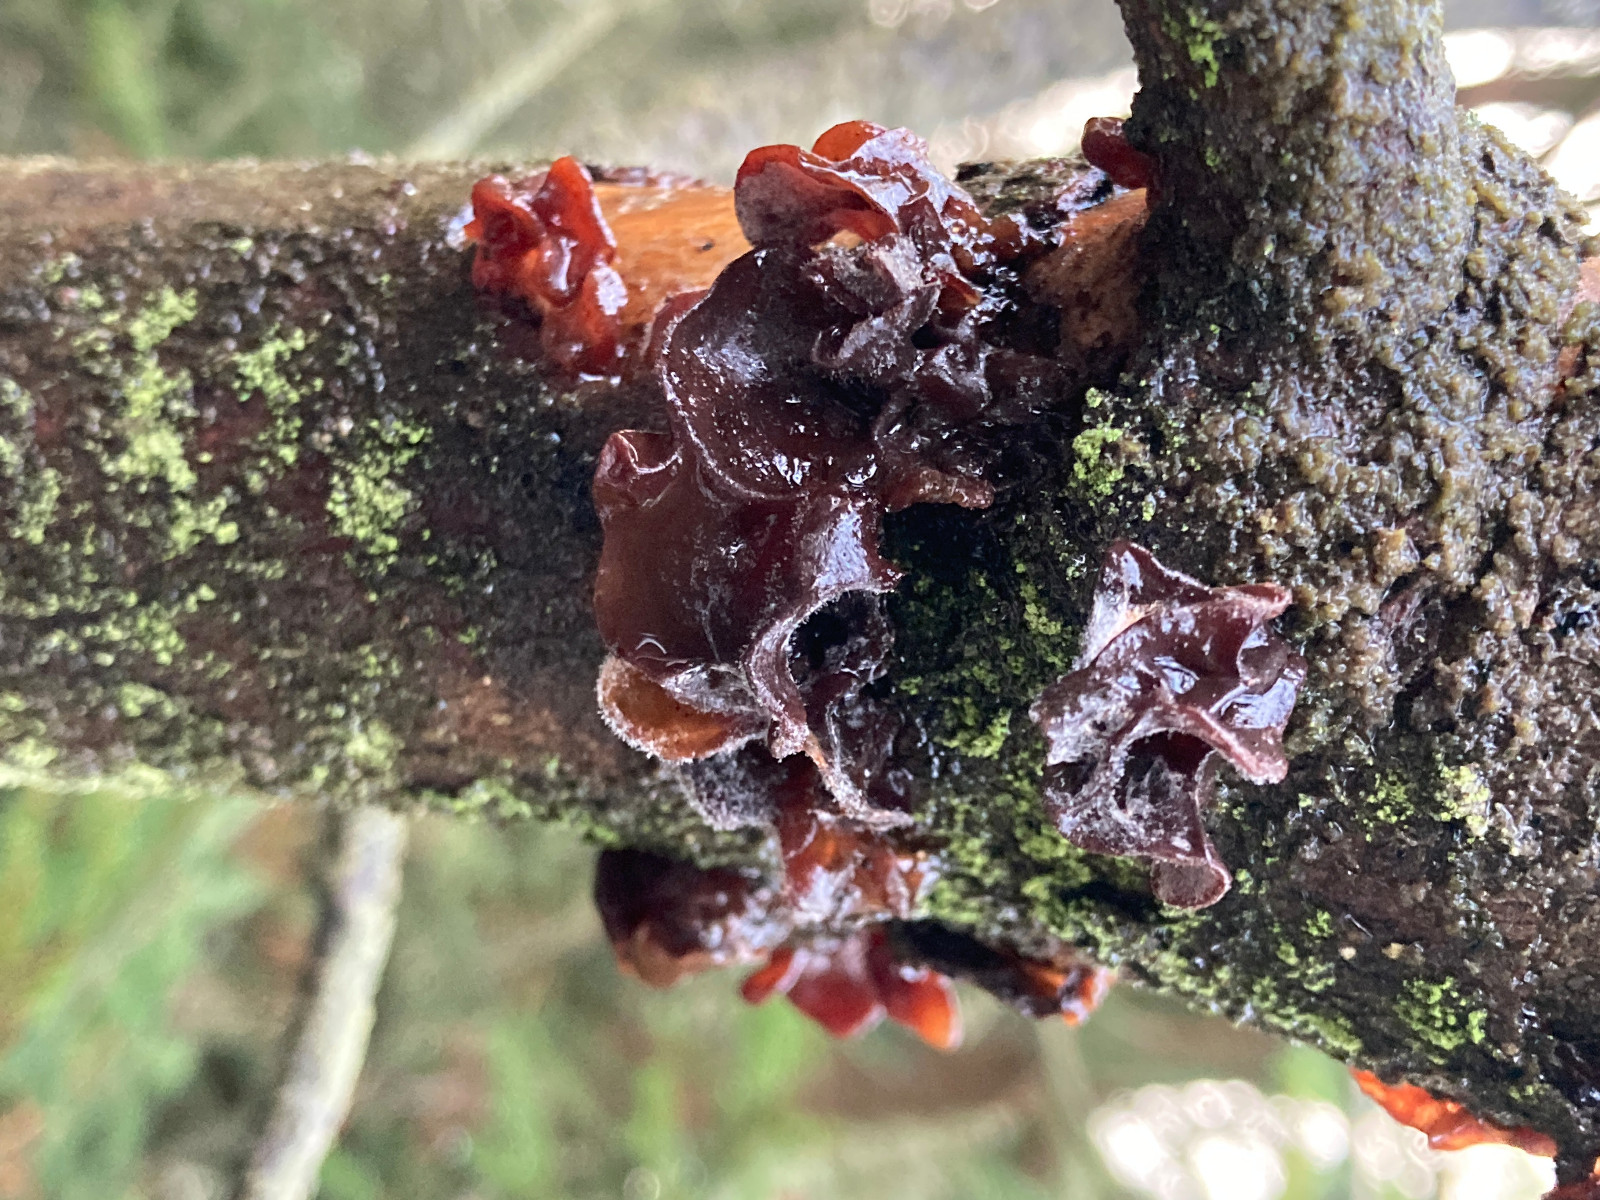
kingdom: Fungi
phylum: Basidiomycota
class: Tremellomycetes
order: Tremellales
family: Tremellaceae
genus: Phaeotremella
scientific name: Phaeotremella foliacea
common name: brun bævresvamp
